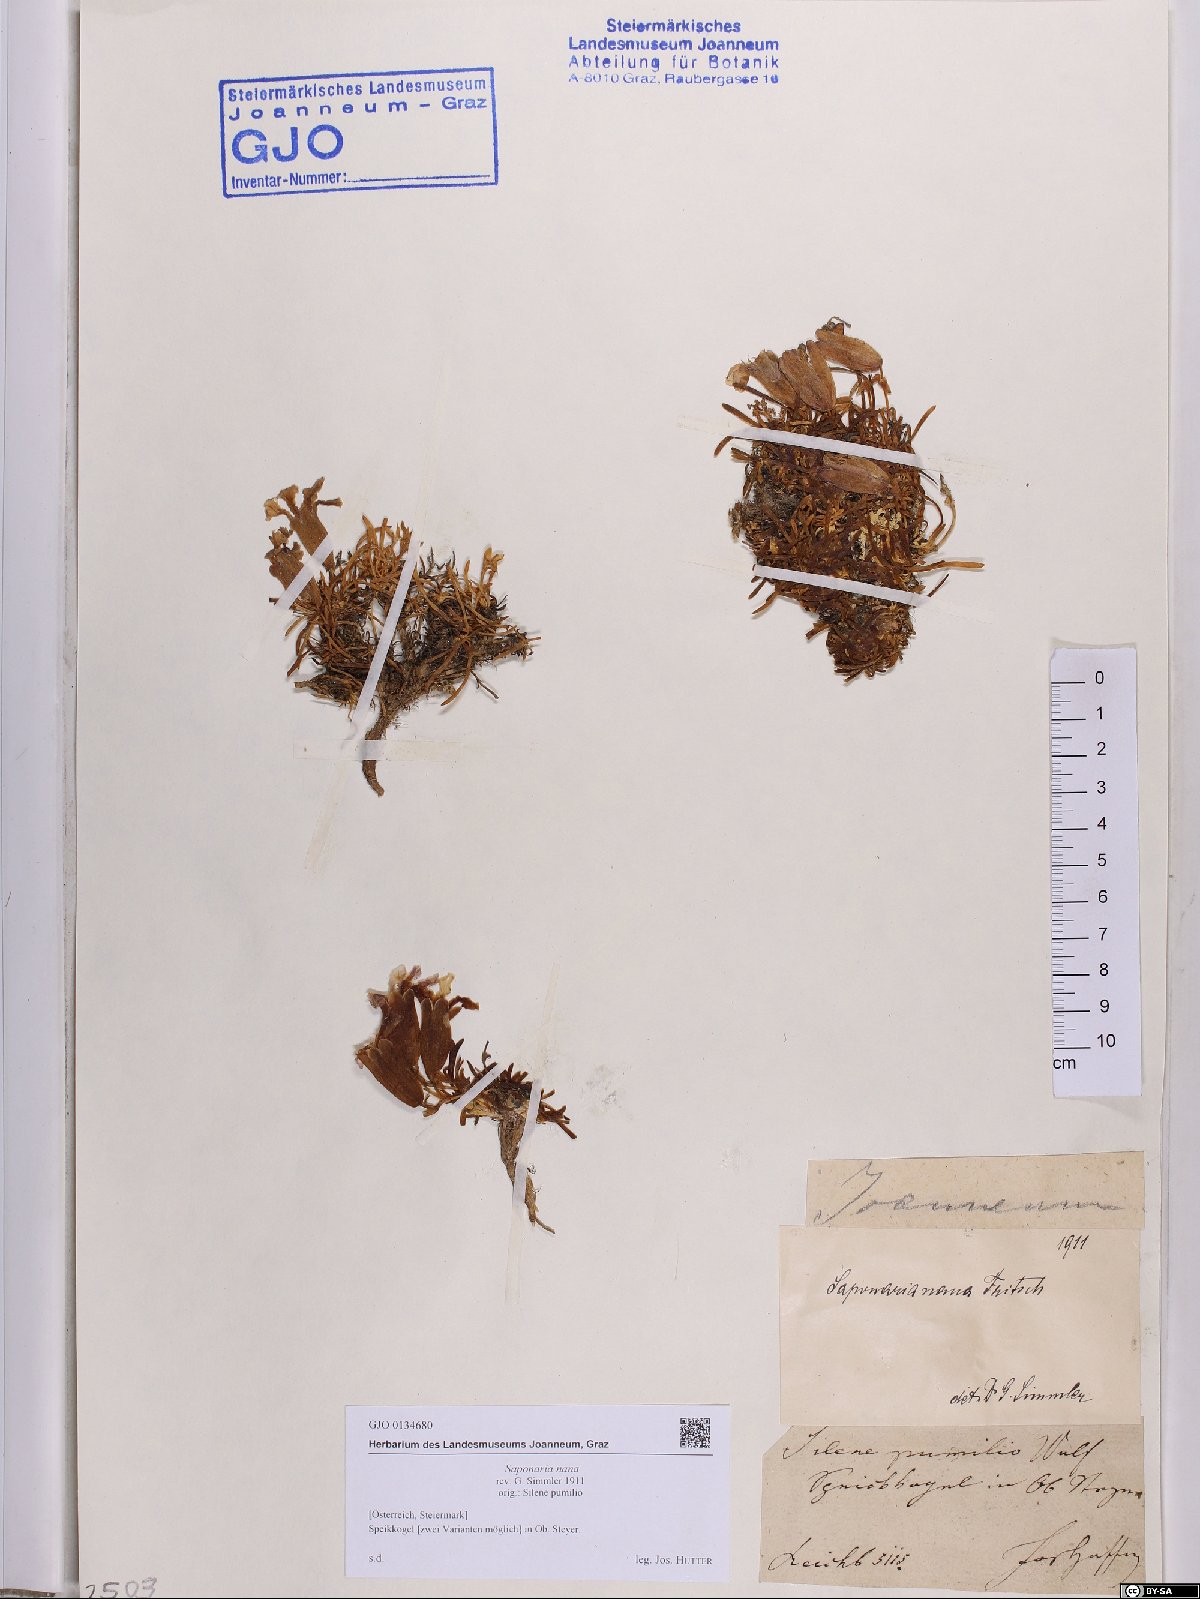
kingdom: Plantae
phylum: Tracheophyta
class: Magnoliopsida
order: Caryophyllales
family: Caryophyllaceae
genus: Saponaria
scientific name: Saponaria pumila
